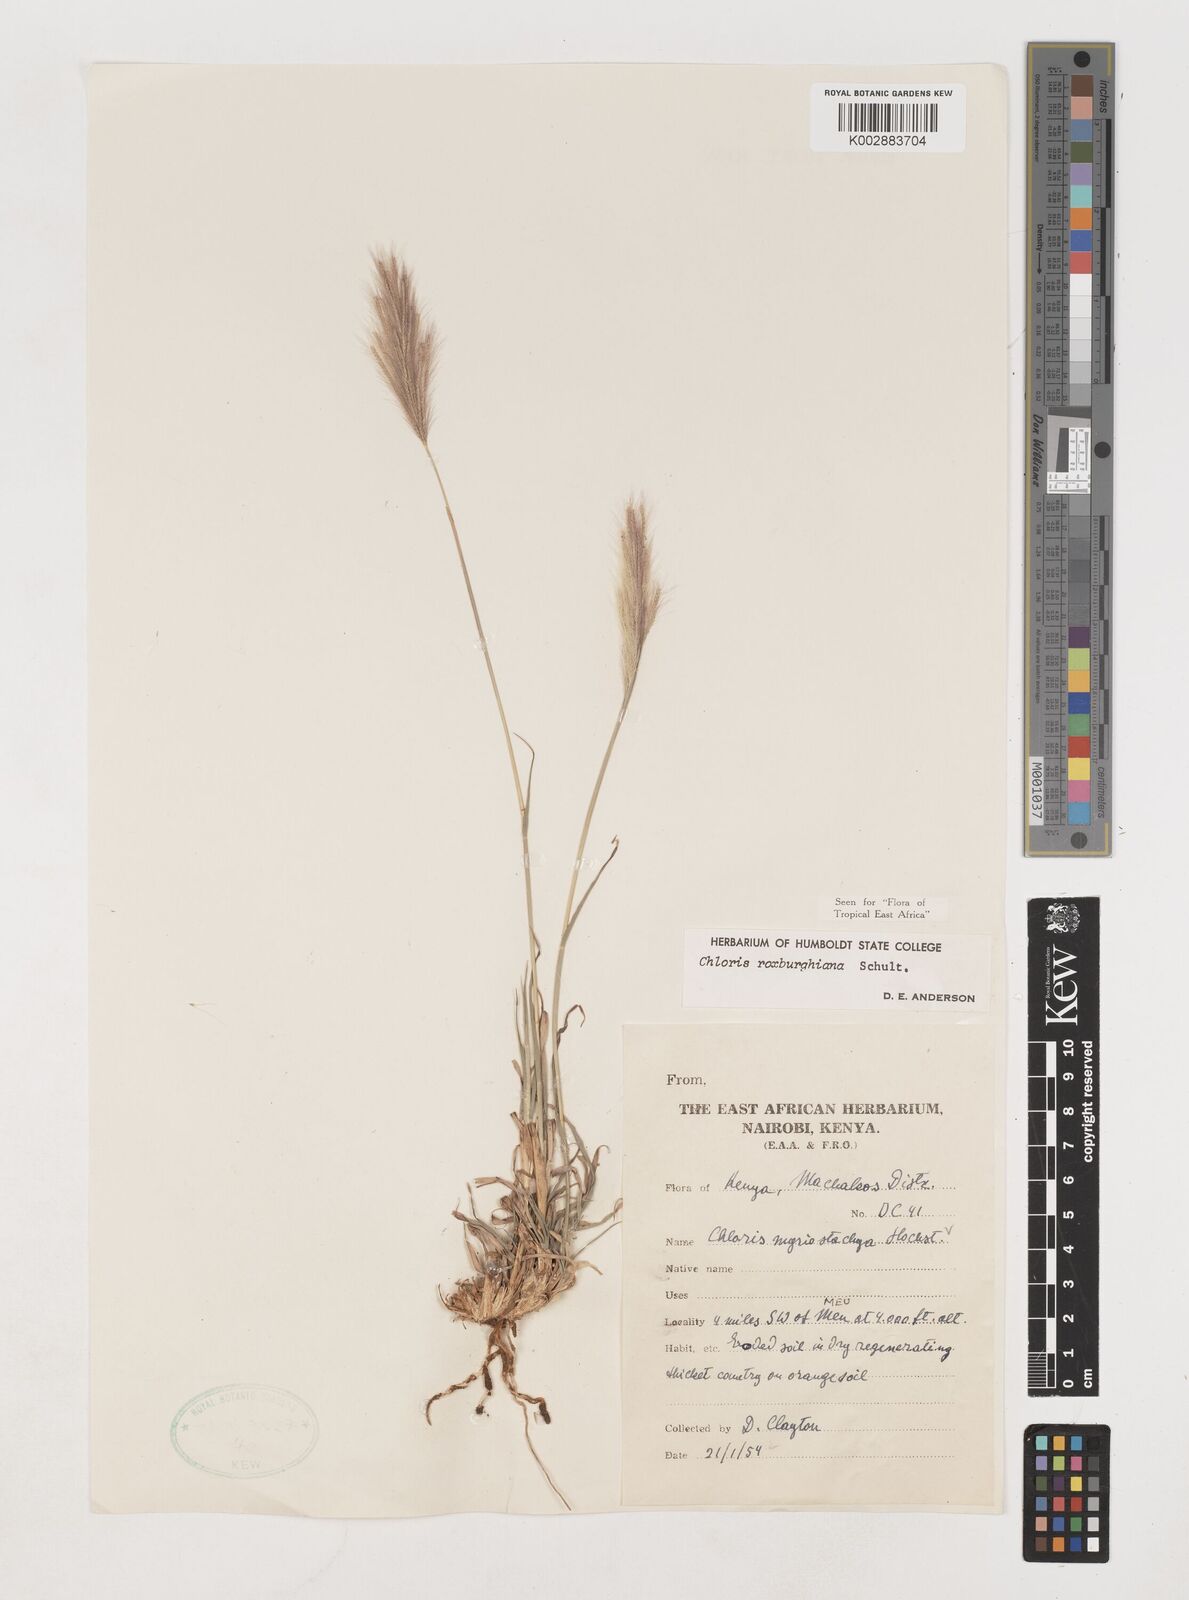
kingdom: Plantae
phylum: Tracheophyta
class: Liliopsida
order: Poales
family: Poaceae
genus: Tetrapogon
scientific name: Tetrapogon roxburghiana
